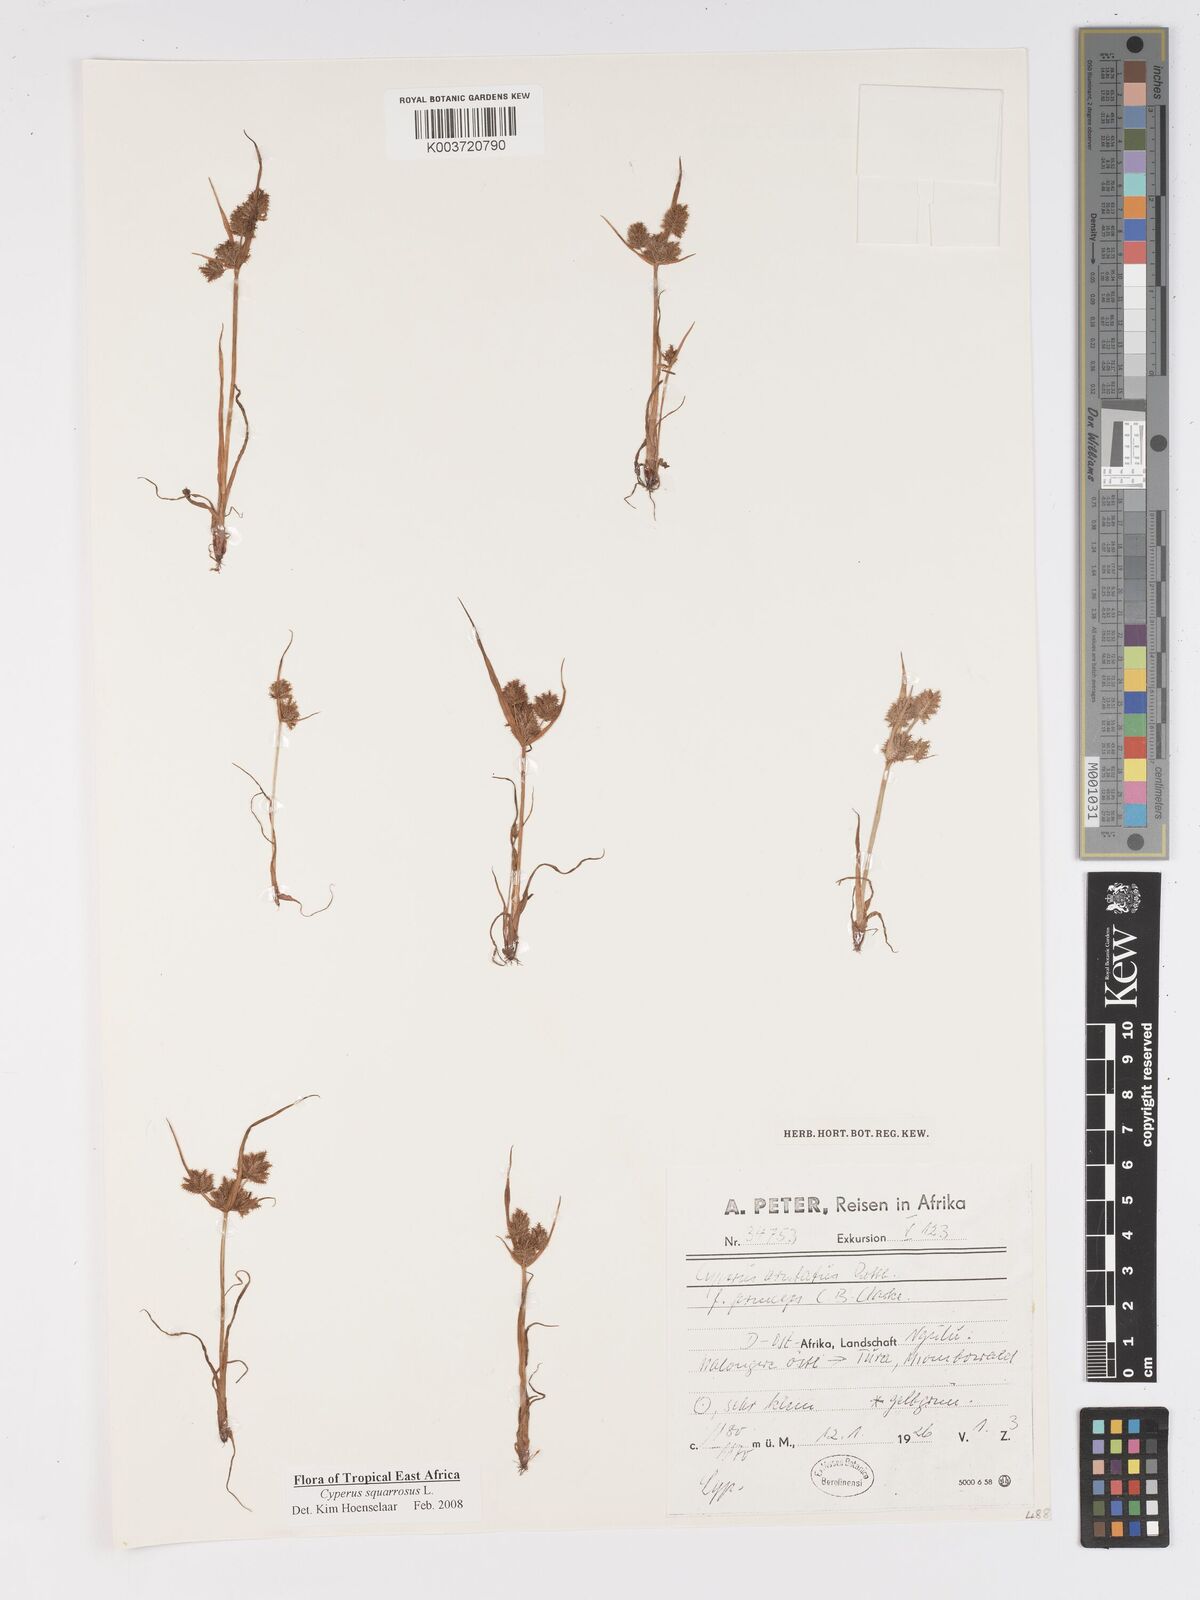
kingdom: Plantae
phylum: Tracheophyta
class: Liliopsida
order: Poales
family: Cyperaceae
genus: Cyperus
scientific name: Cyperus squarrosus
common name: Awned cyperus
